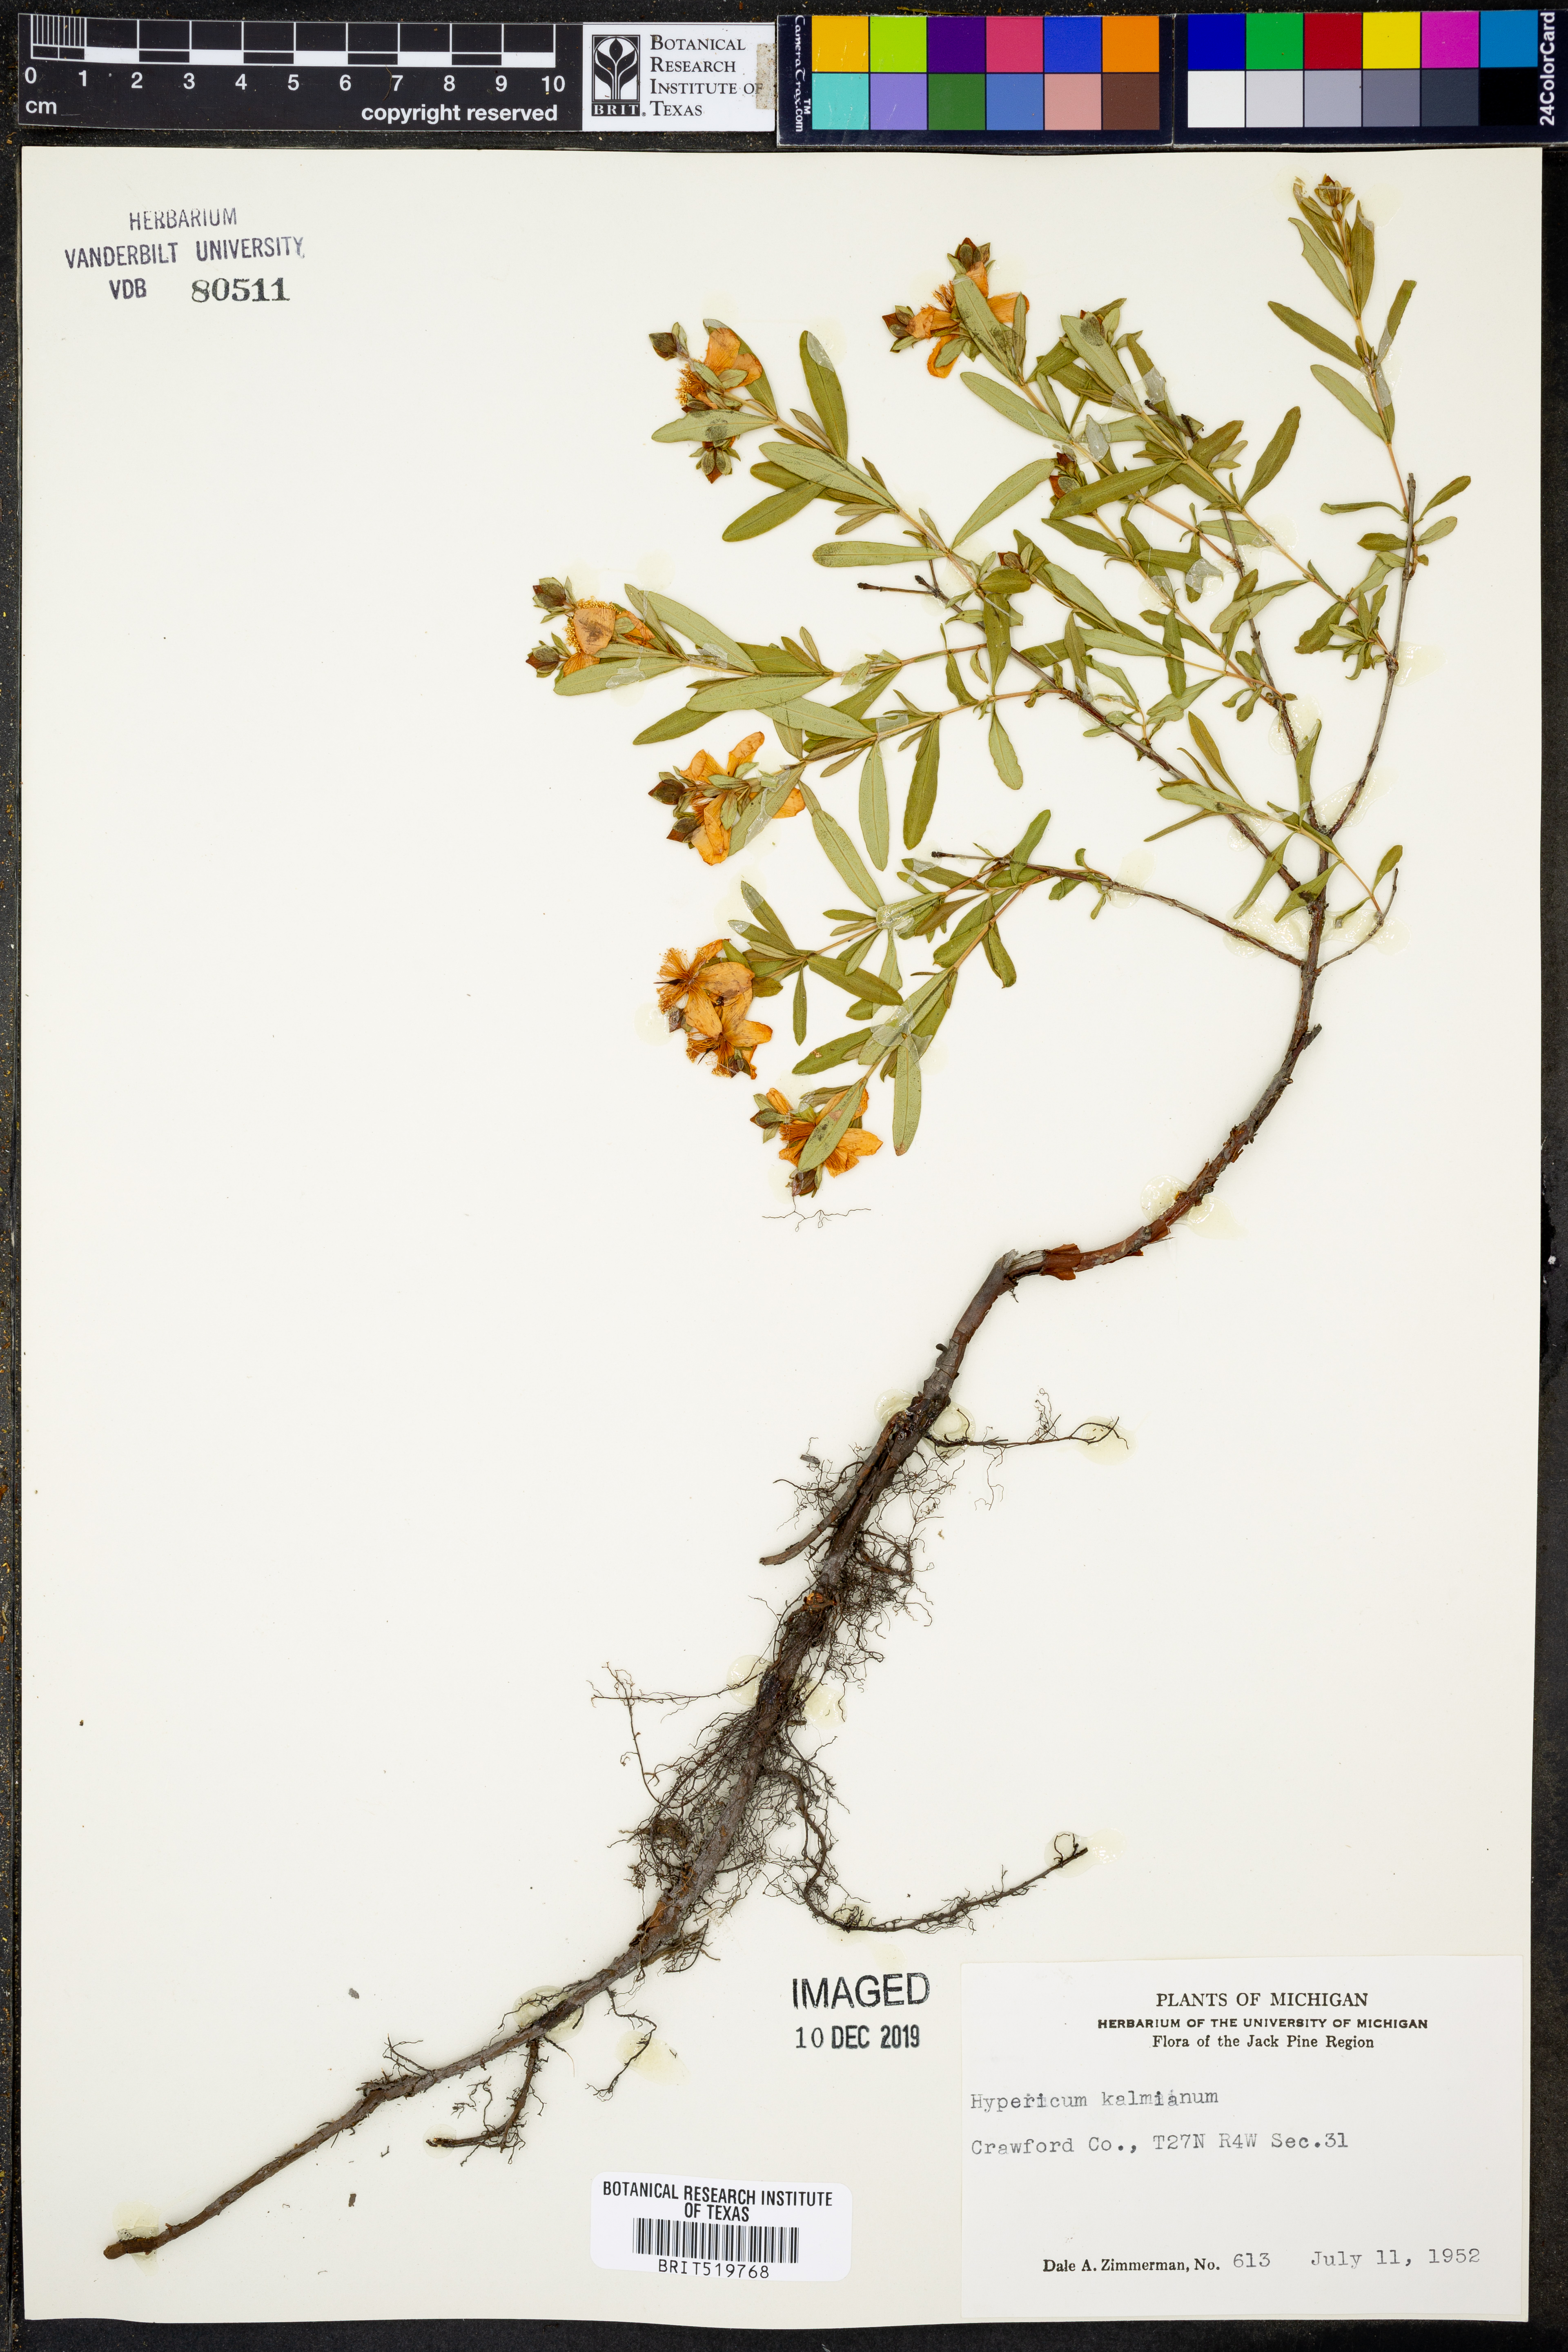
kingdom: Plantae
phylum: Tracheophyta
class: Magnoliopsida
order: Malpighiales
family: Hypericaceae
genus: Hypericum
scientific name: Hypericum kalmianum
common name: Kalm's st. john's-wort
